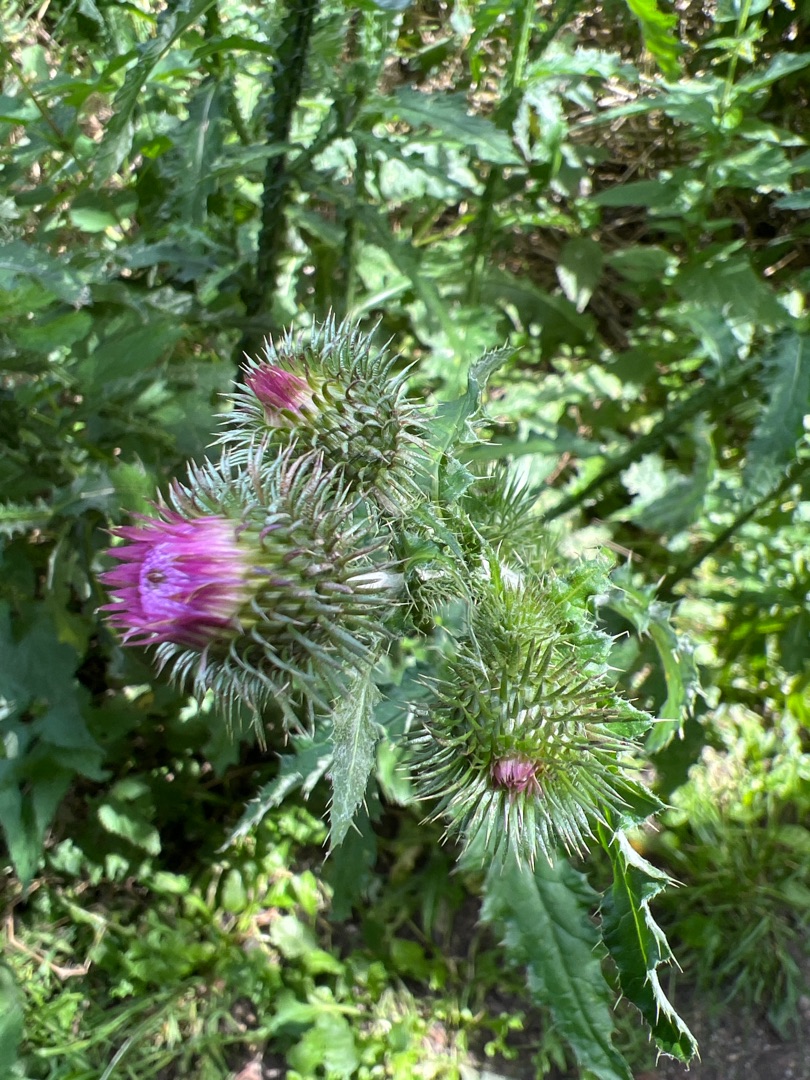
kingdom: Plantae
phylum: Tracheophyta
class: Magnoliopsida
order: Asterales
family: Asteraceae
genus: Carduus
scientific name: Carduus crispus
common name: Kruset tidsel
